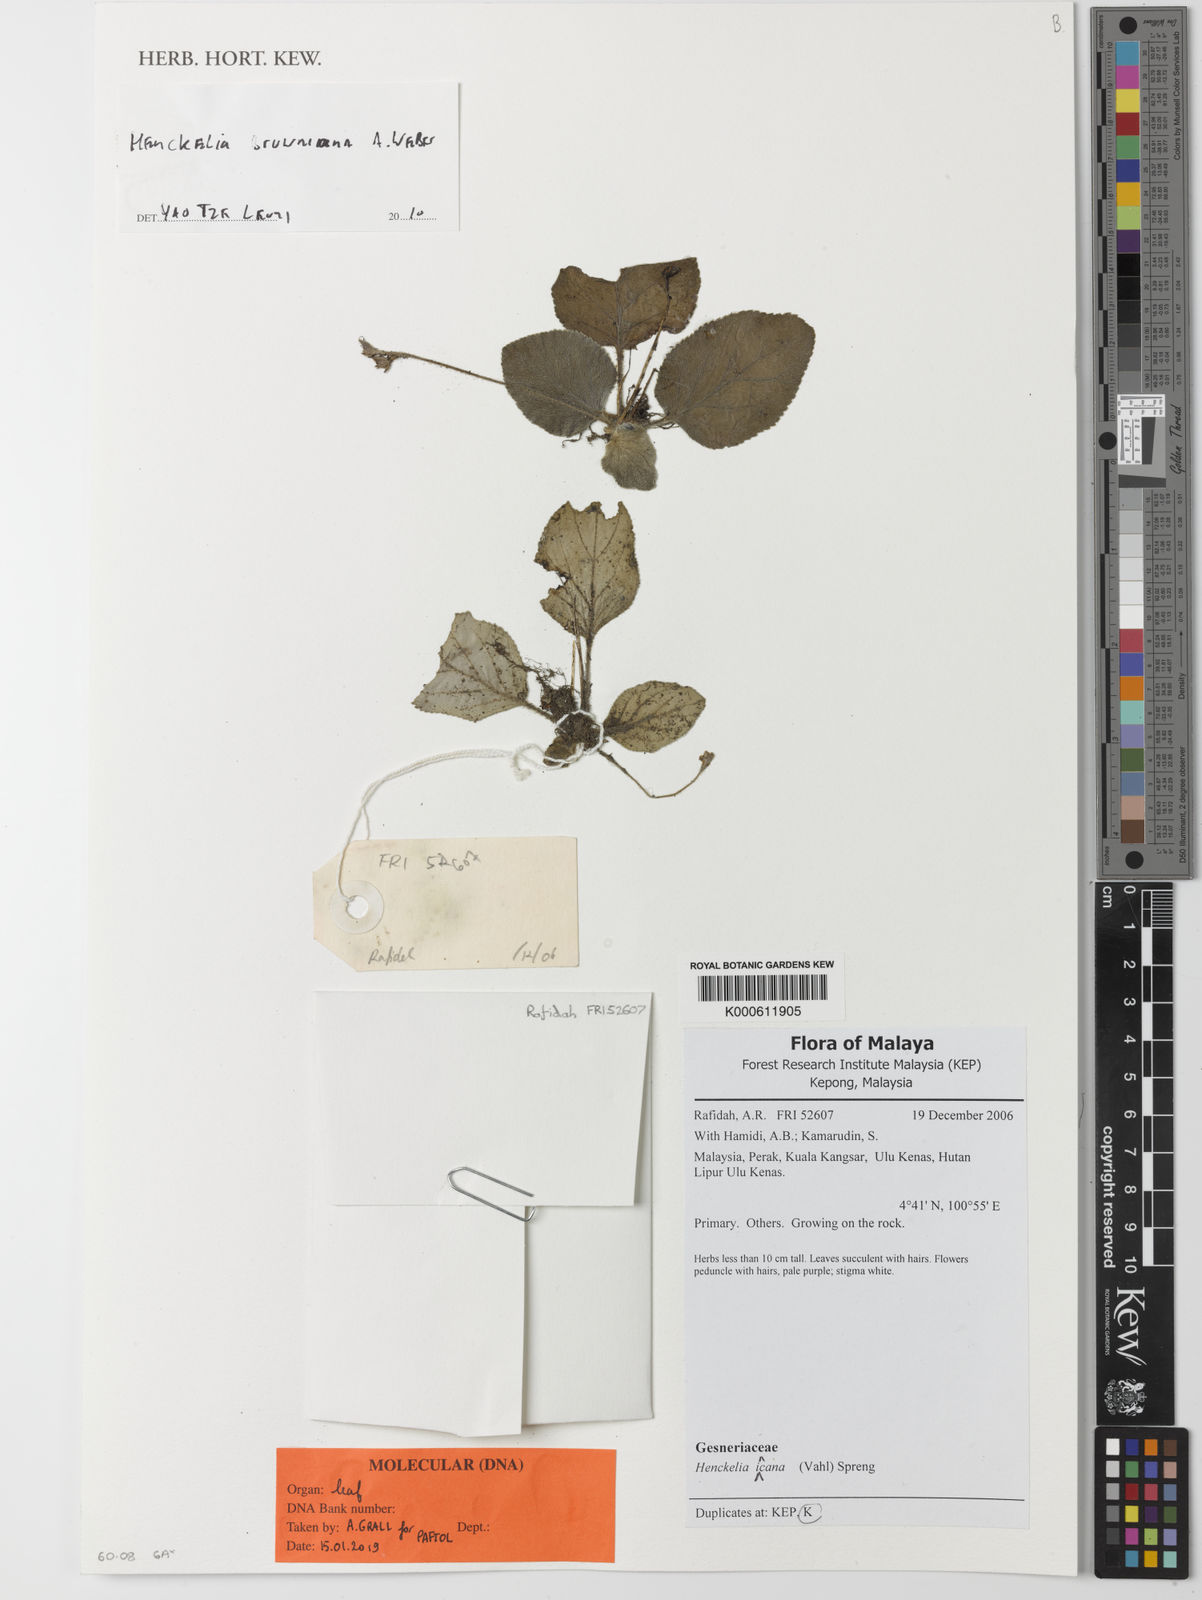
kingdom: Plantae
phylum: Tracheophyta
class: Magnoliopsida
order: Lamiales
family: Gesneriaceae
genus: Loxocarpus
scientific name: Loxocarpus incanus
